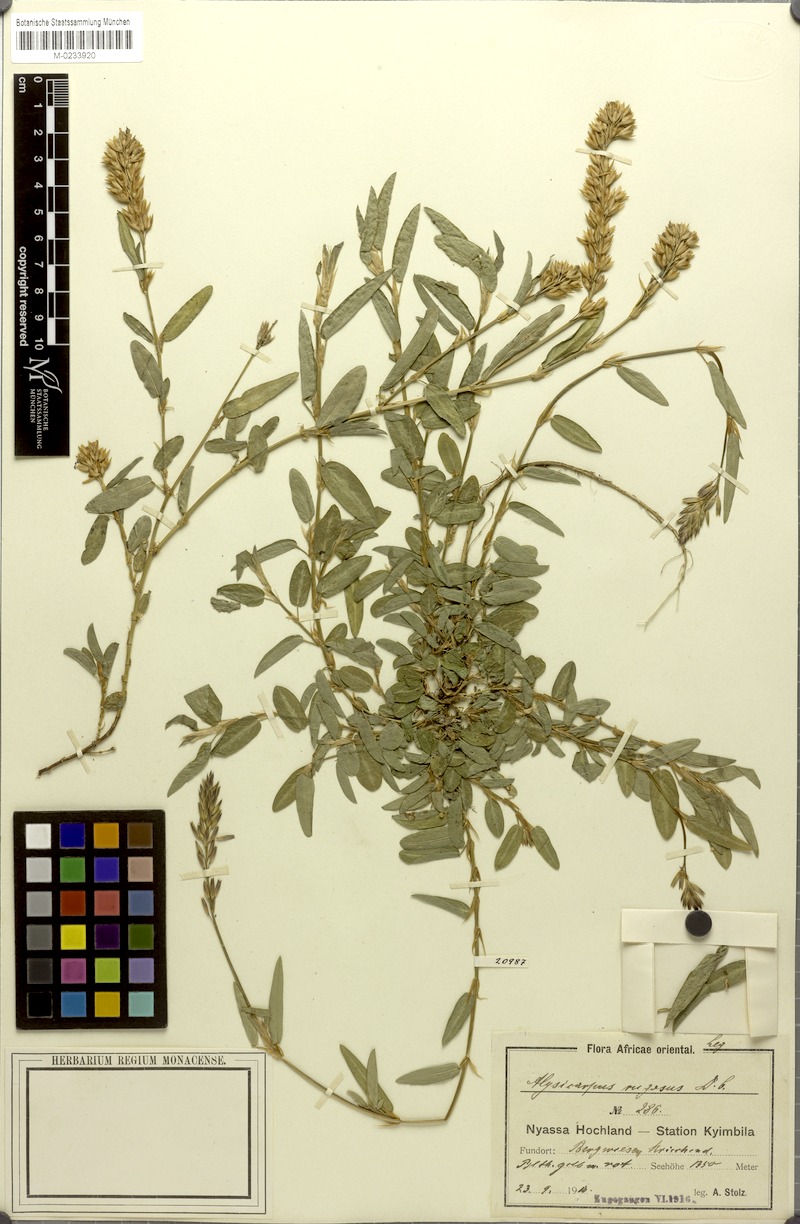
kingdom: Plantae
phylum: Tracheophyta
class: Magnoliopsida
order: Fabales
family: Fabaceae
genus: Alysicarpus
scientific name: Alysicarpus rugosus
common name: Red moneywort
